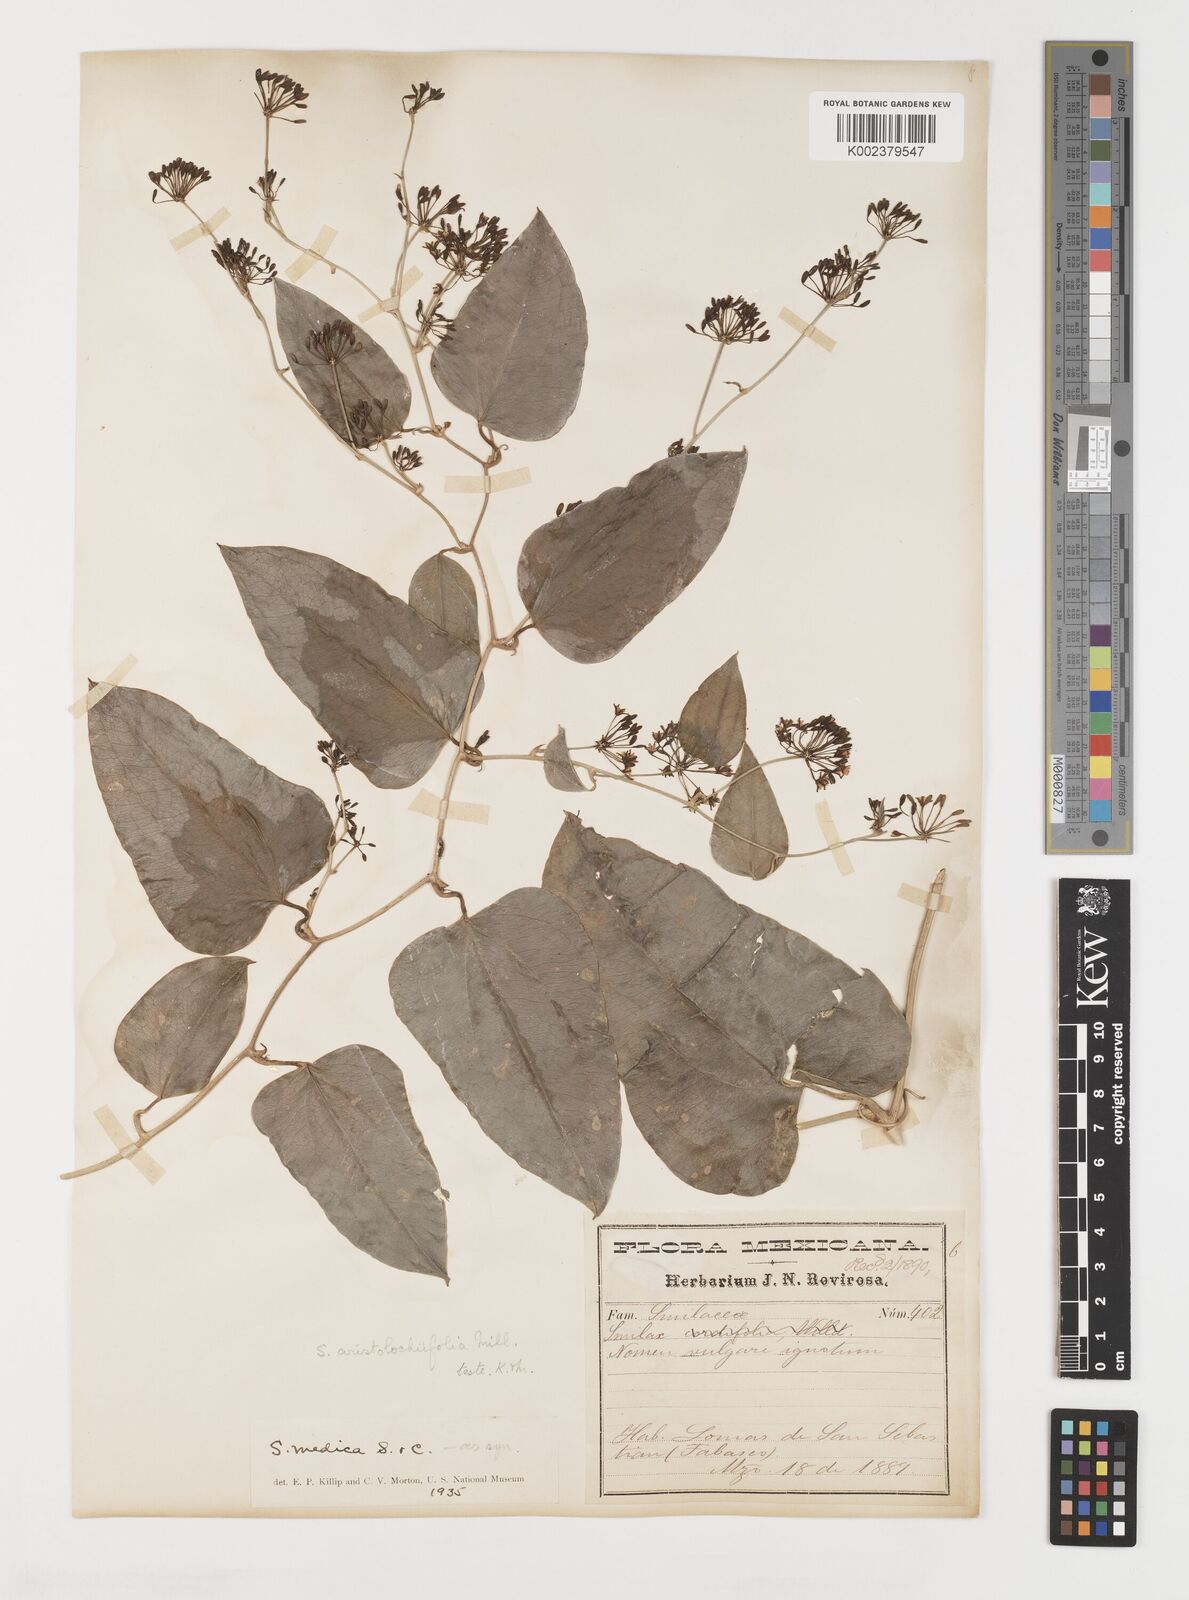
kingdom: Plantae
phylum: Tracheophyta
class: Liliopsida
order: Liliales
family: Smilacaceae
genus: Smilax
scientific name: Smilax aristolochiifolia
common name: Sarsaparilla
